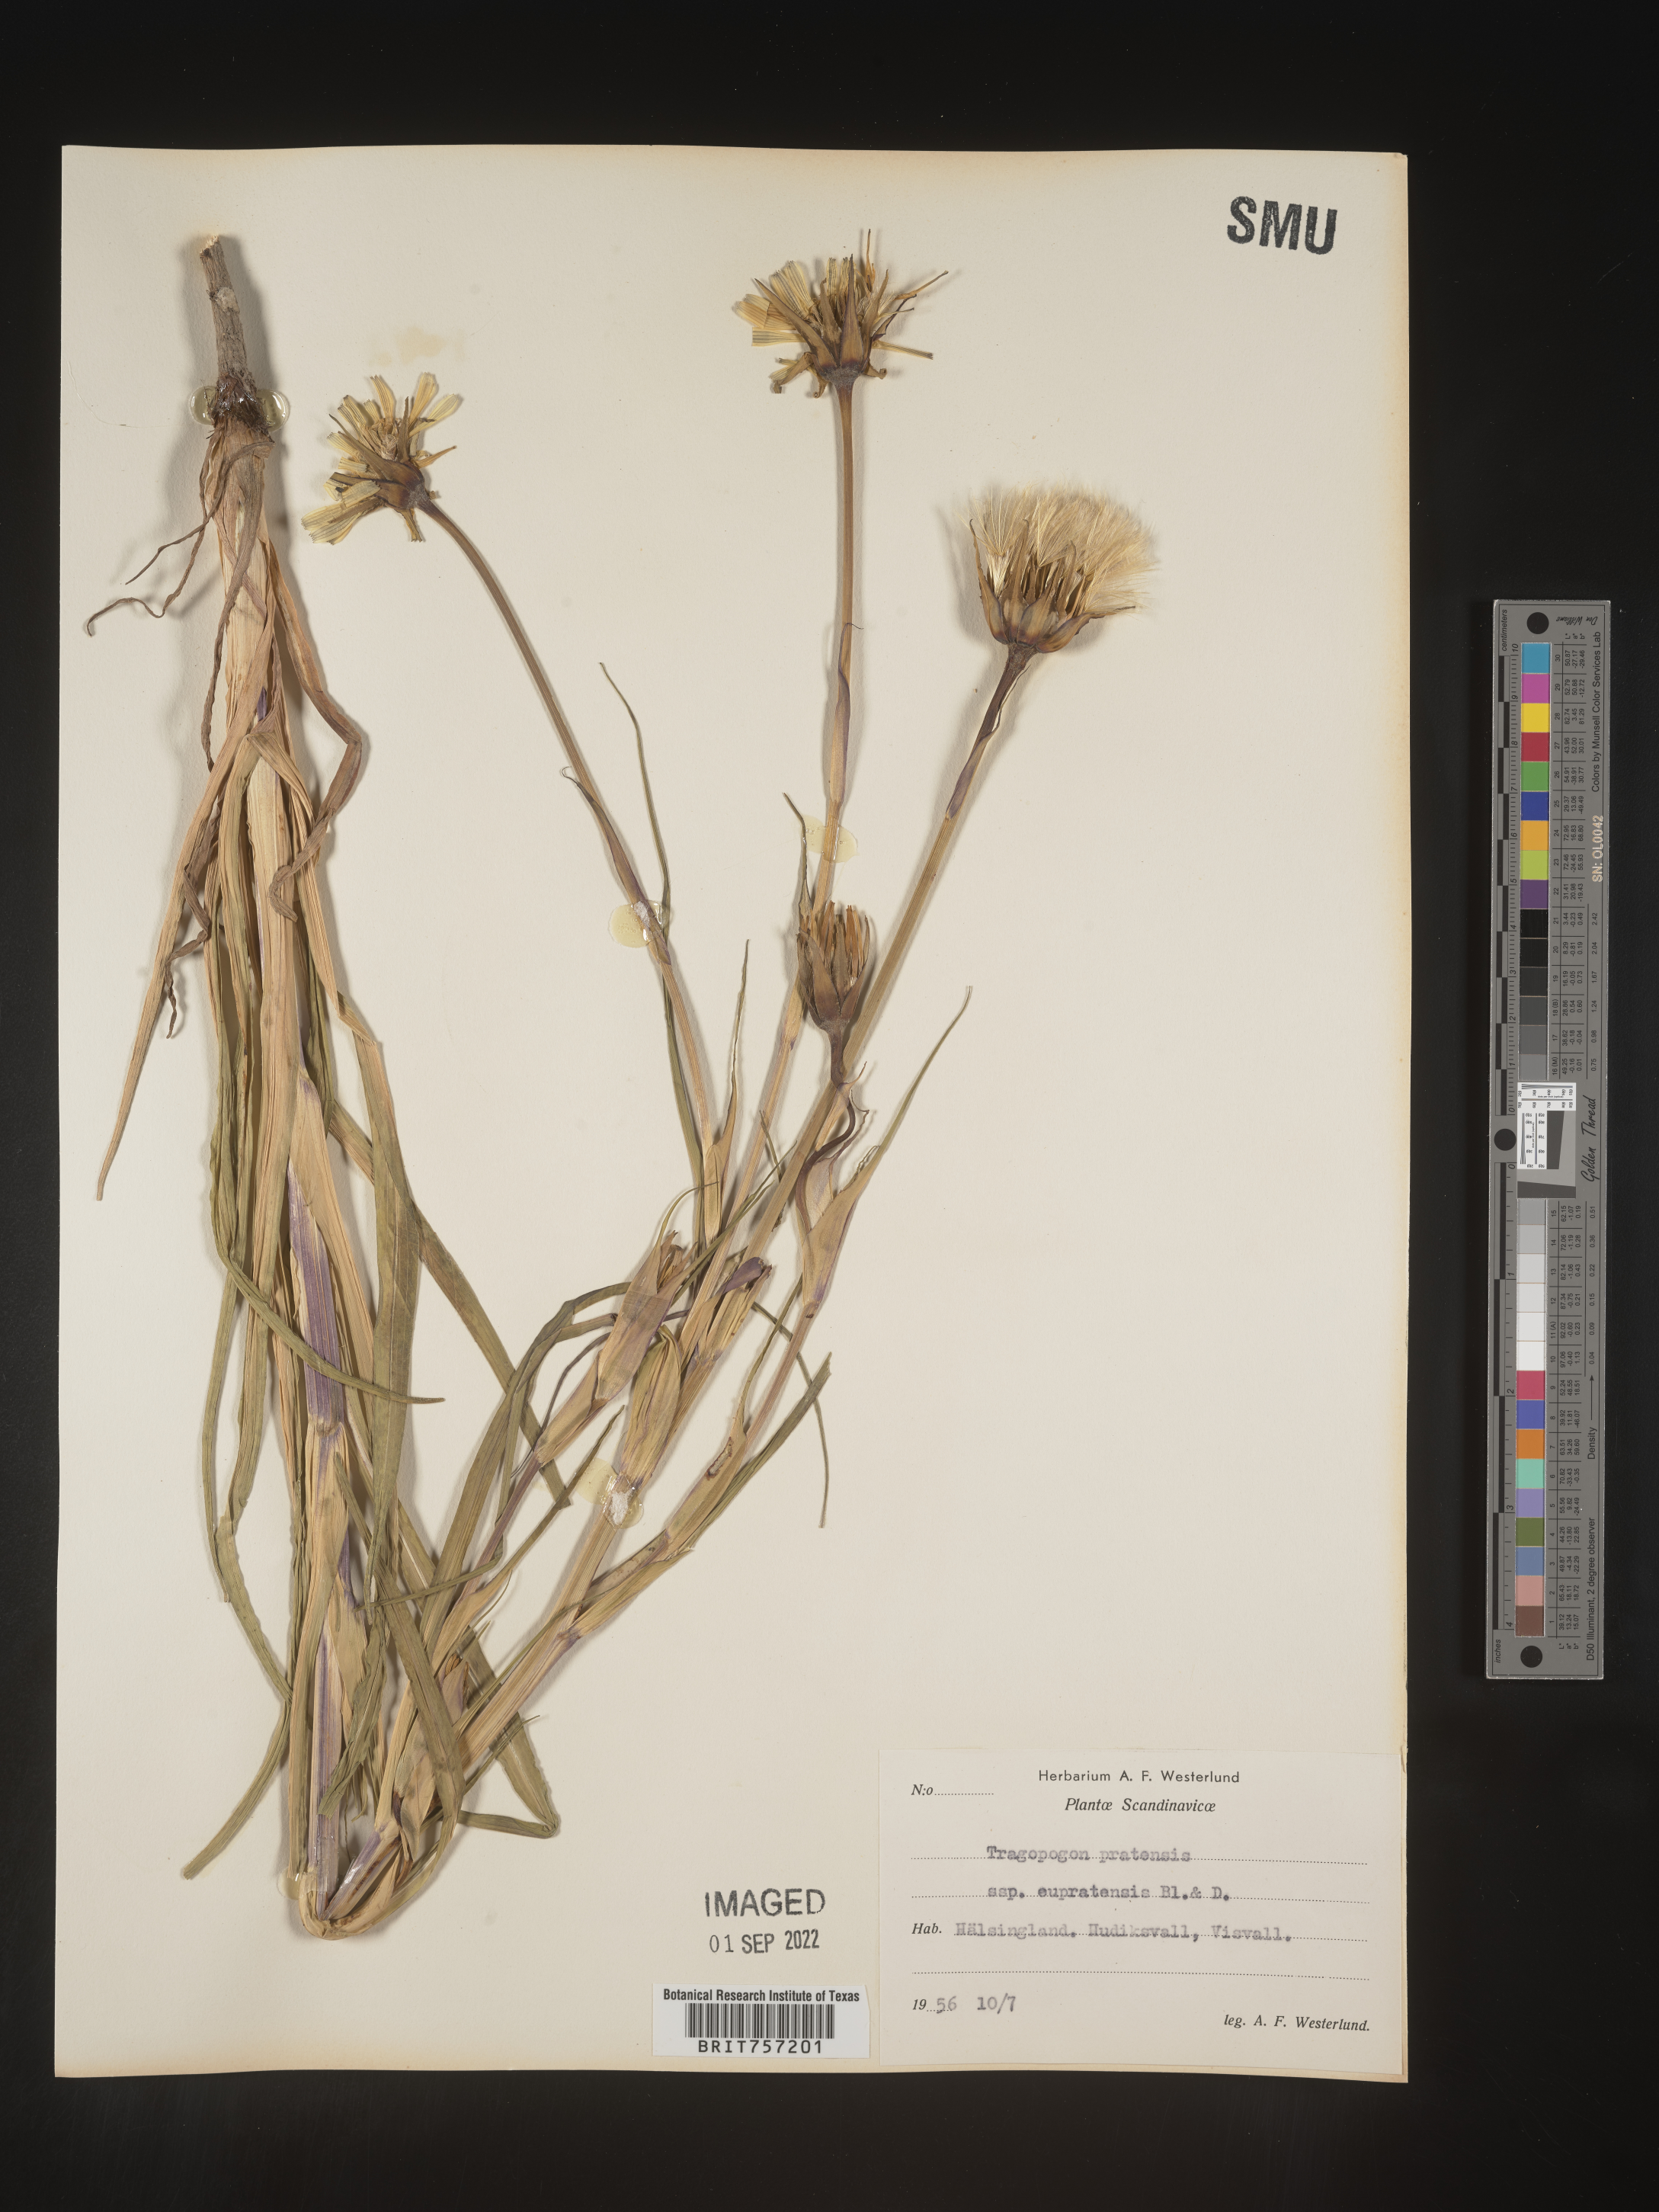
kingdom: Plantae
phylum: Tracheophyta
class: Magnoliopsida
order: Asterales
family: Asteraceae
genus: Tragopogon
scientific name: Tragopogon
